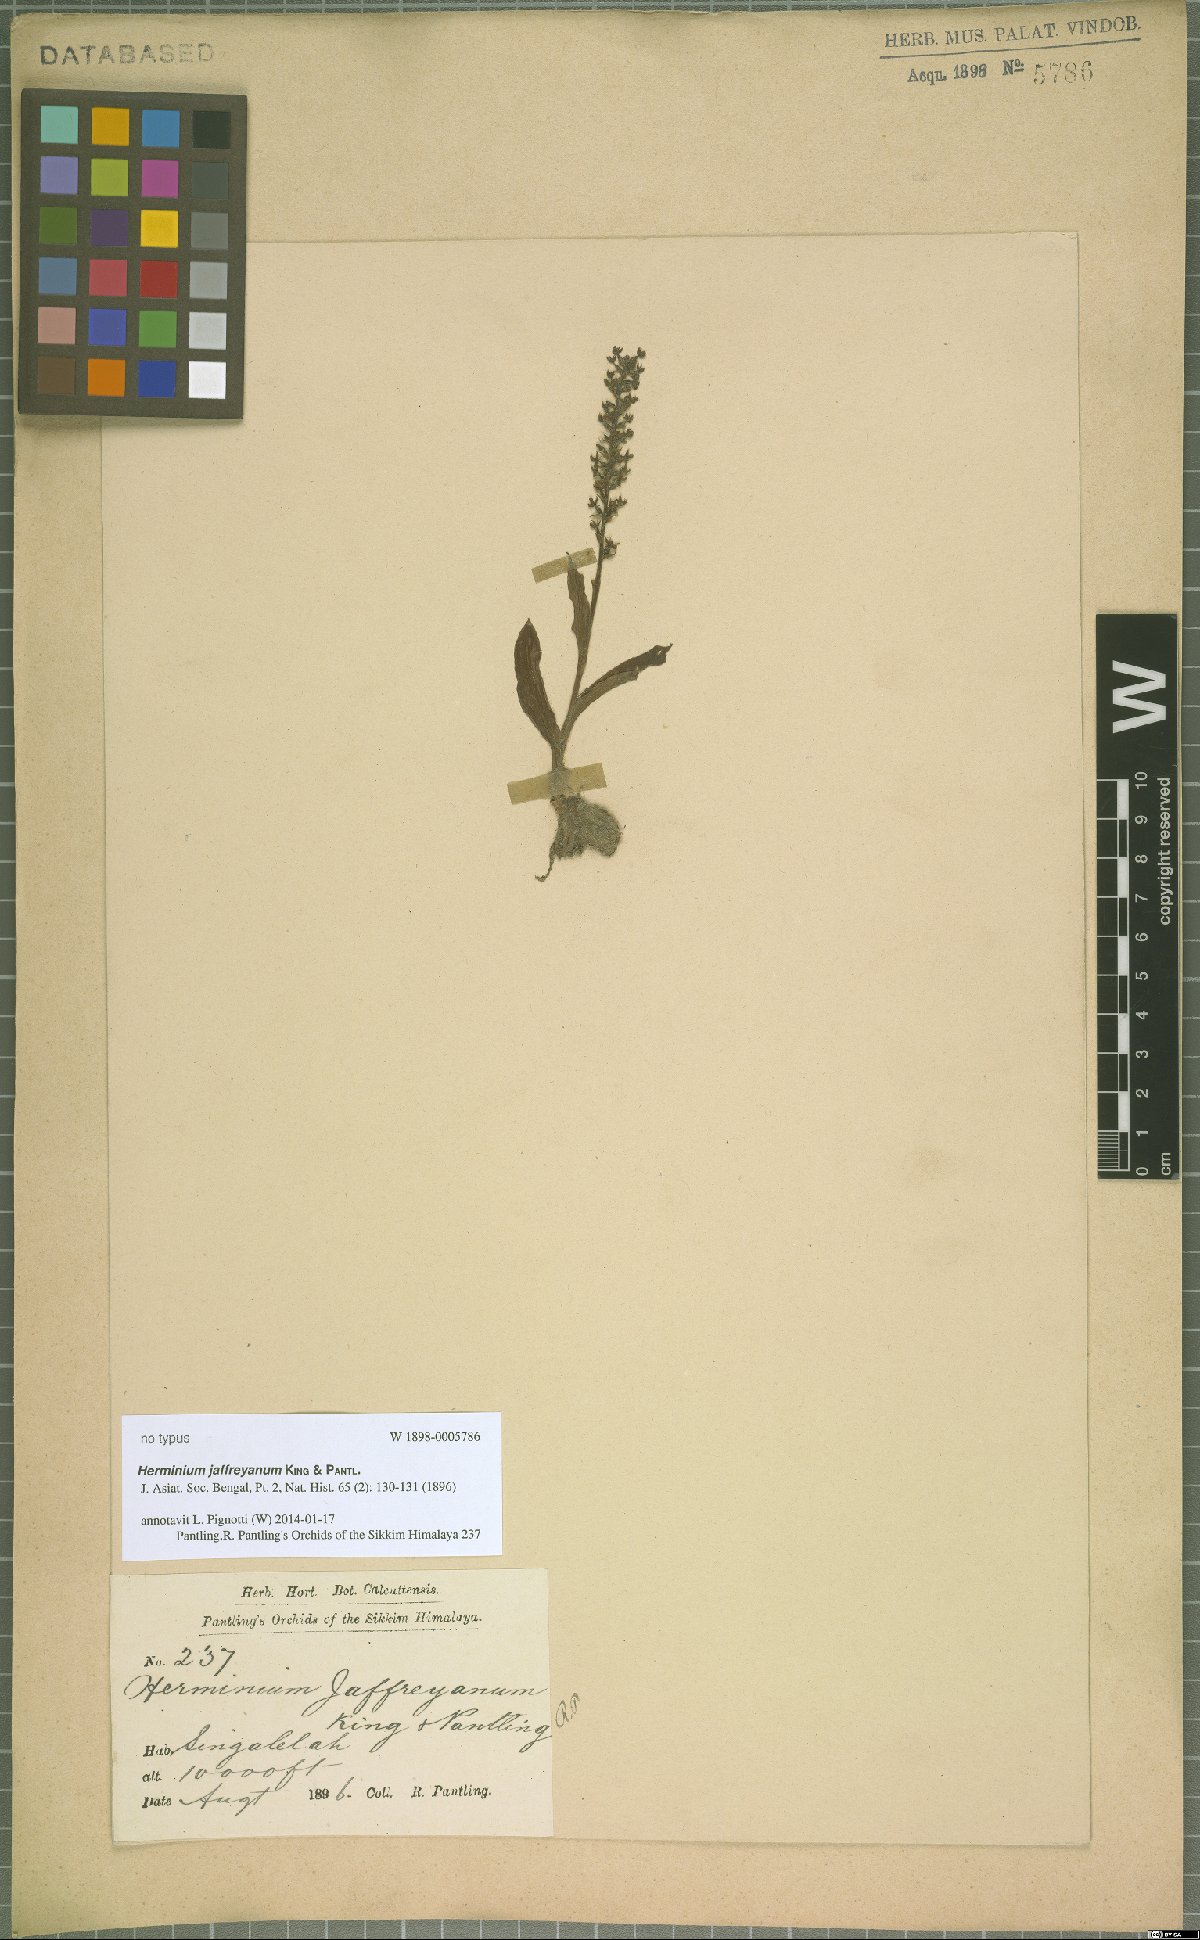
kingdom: Plantae
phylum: Tracheophyta
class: Liliopsida
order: Asparagales
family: Orchidaceae
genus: Herminium
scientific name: Herminium jaffreyanum
